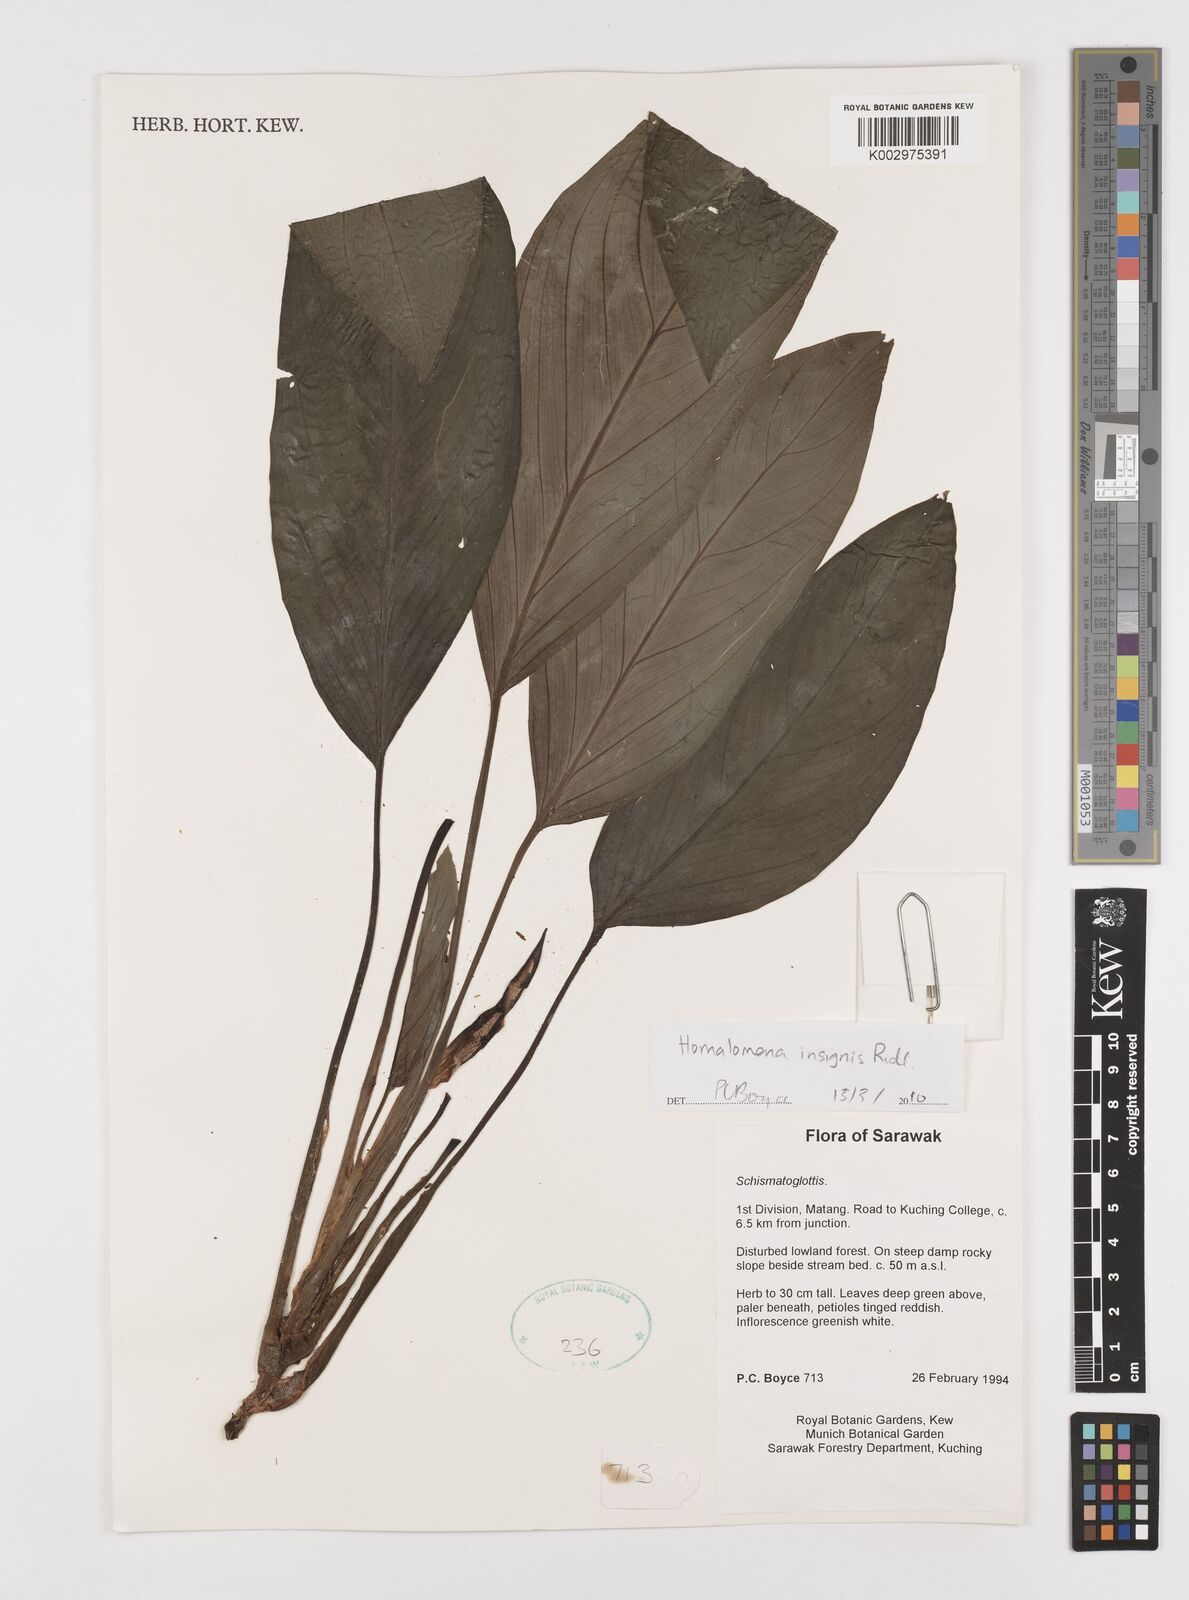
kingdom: Plantae
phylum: Tracheophyta
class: Liliopsida
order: Alismatales
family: Araceae
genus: Homalomena
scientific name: Homalomena insignis
